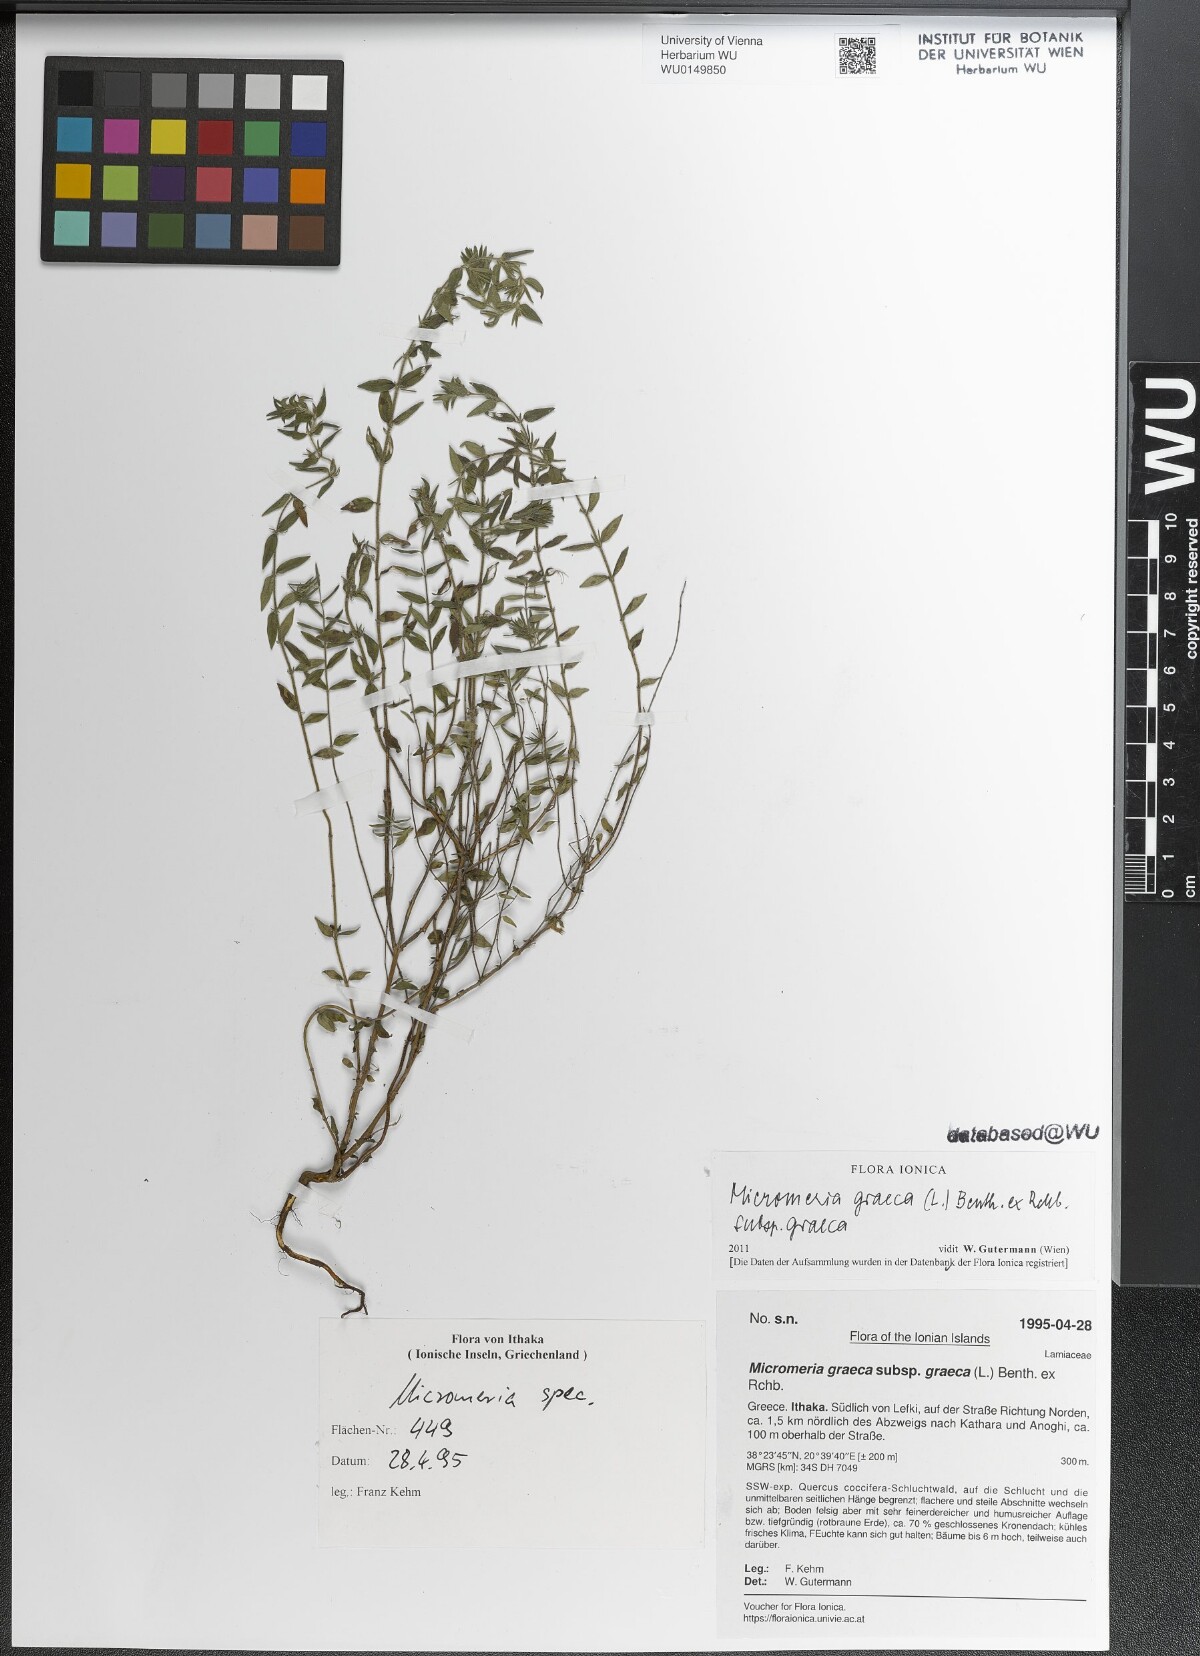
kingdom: Plantae
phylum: Tracheophyta
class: Magnoliopsida
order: Lamiales
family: Lamiaceae
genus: Micromeria
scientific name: Micromeria graeca
